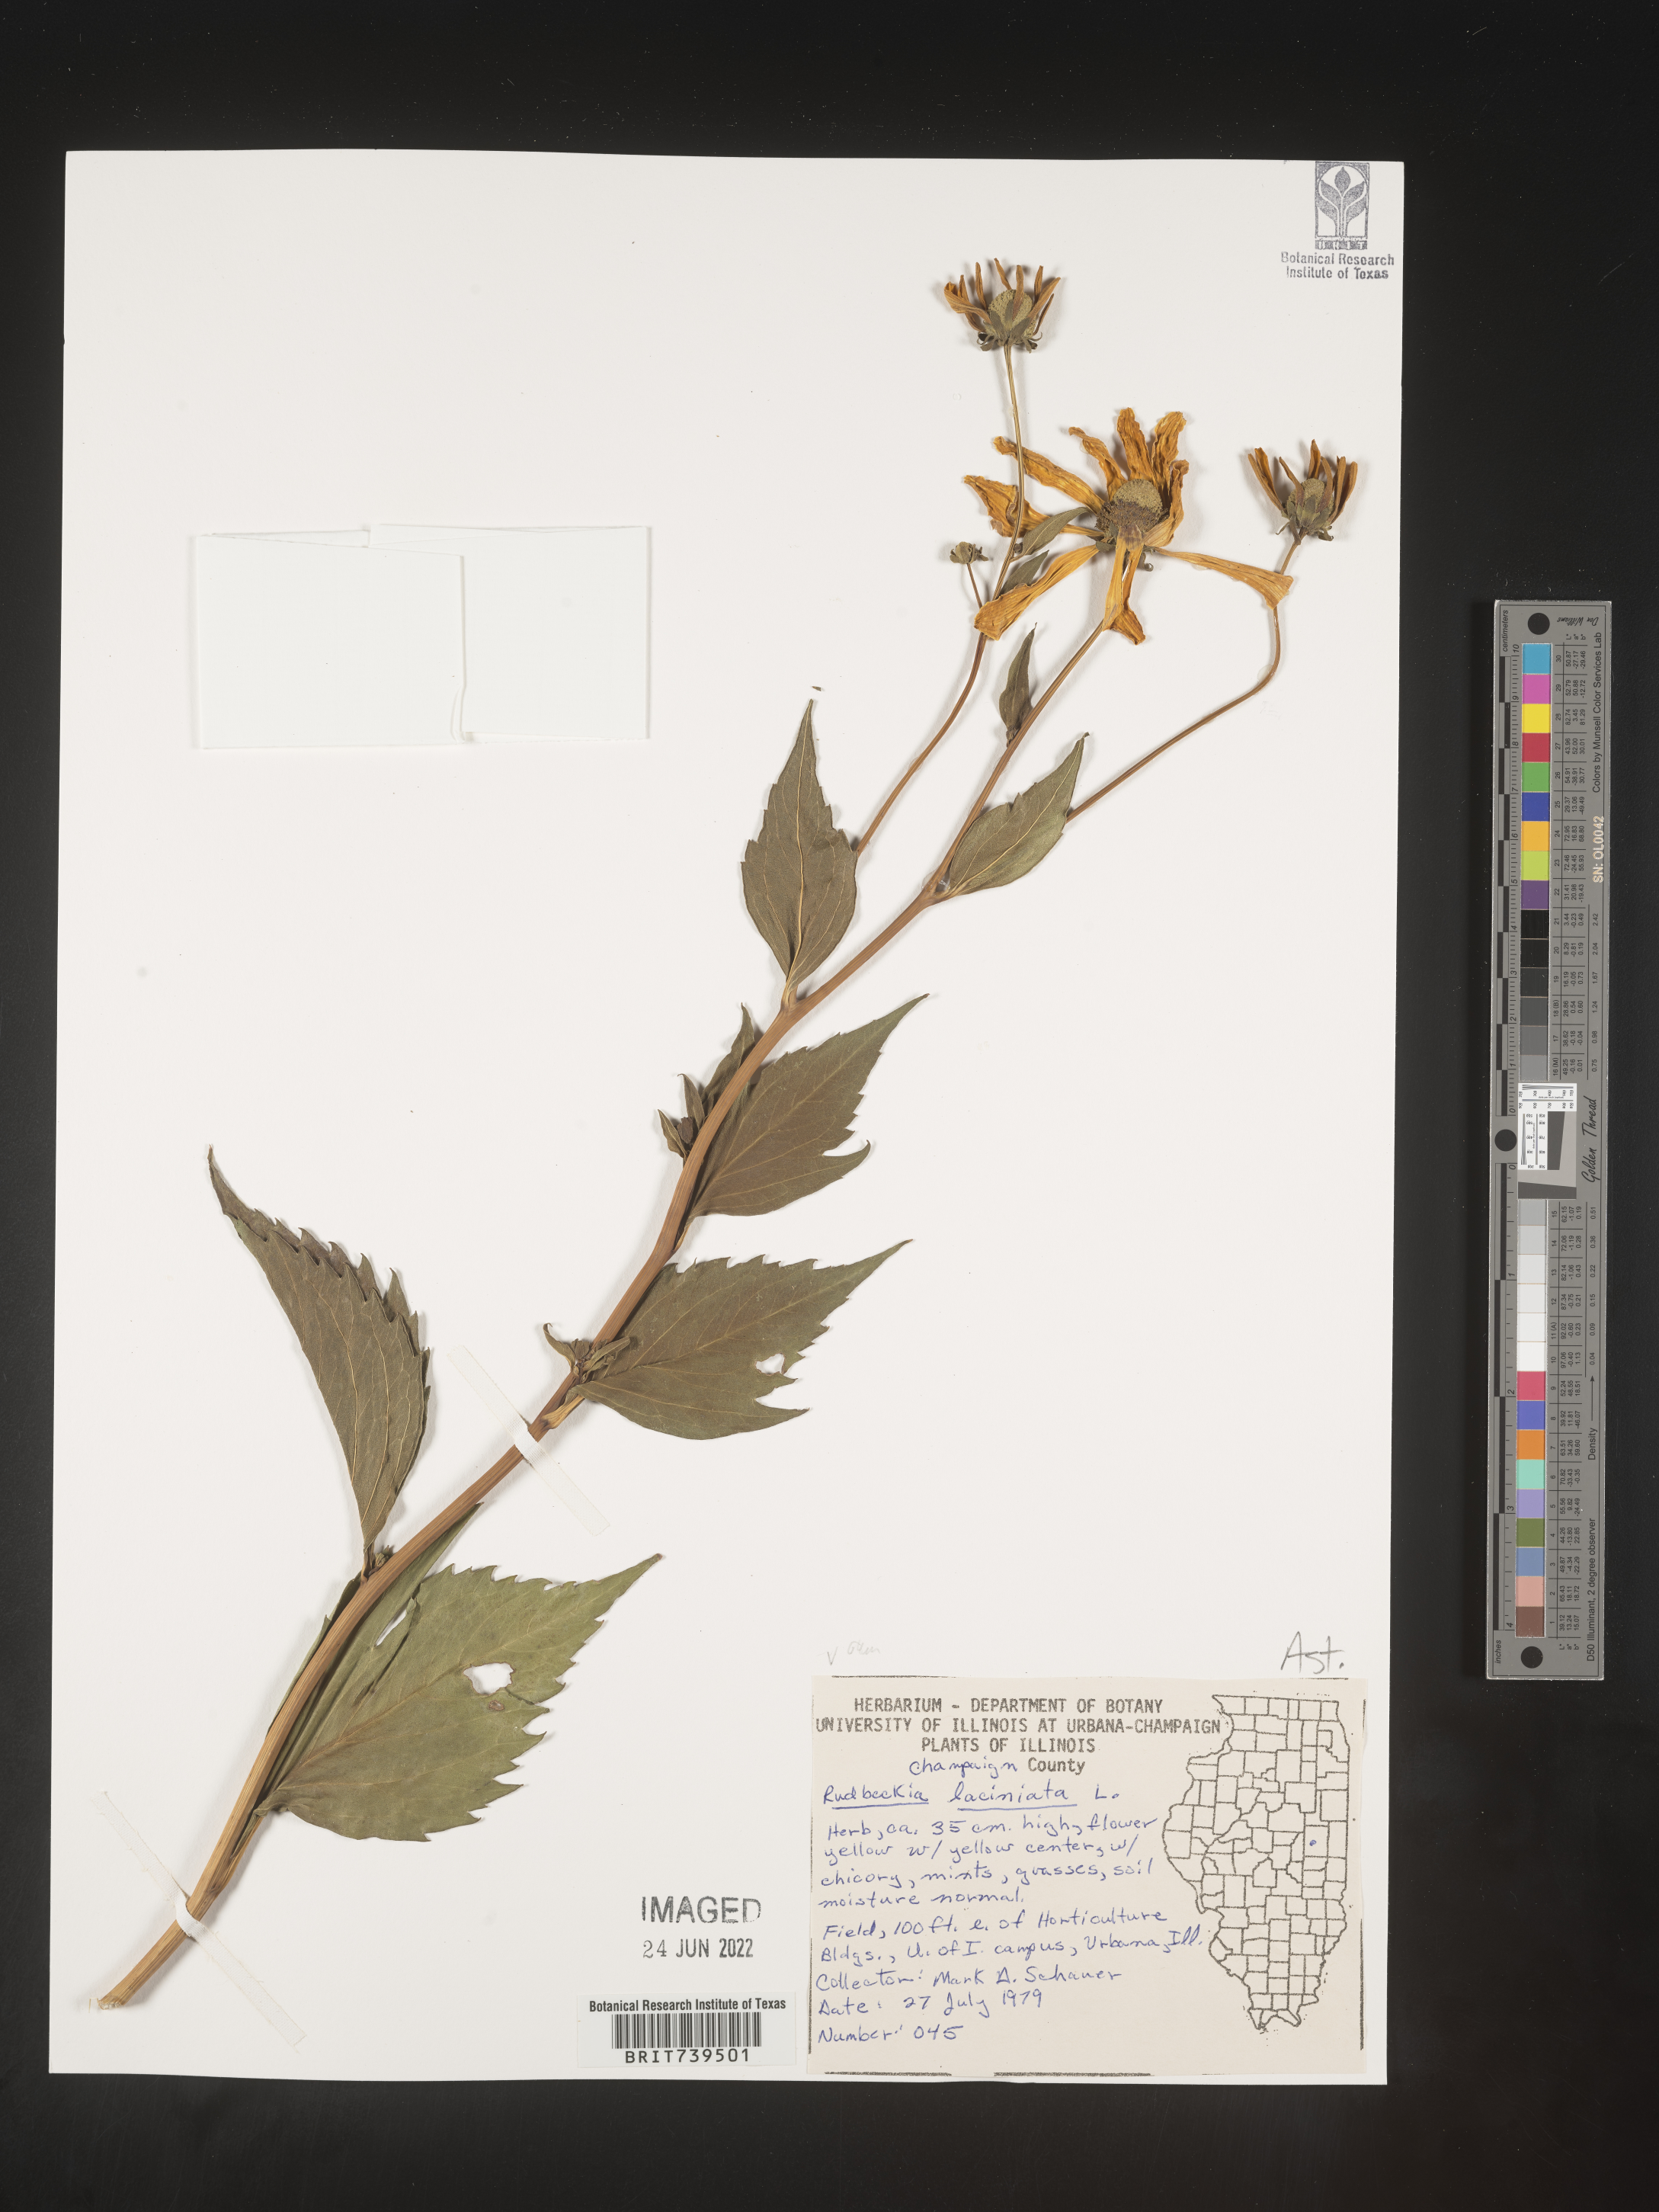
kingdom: Plantae
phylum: Tracheophyta
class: Magnoliopsida
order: Asterales
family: Asteraceae
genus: Rudbeckia
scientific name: Rudbeckia laciniata
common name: Coneflower
